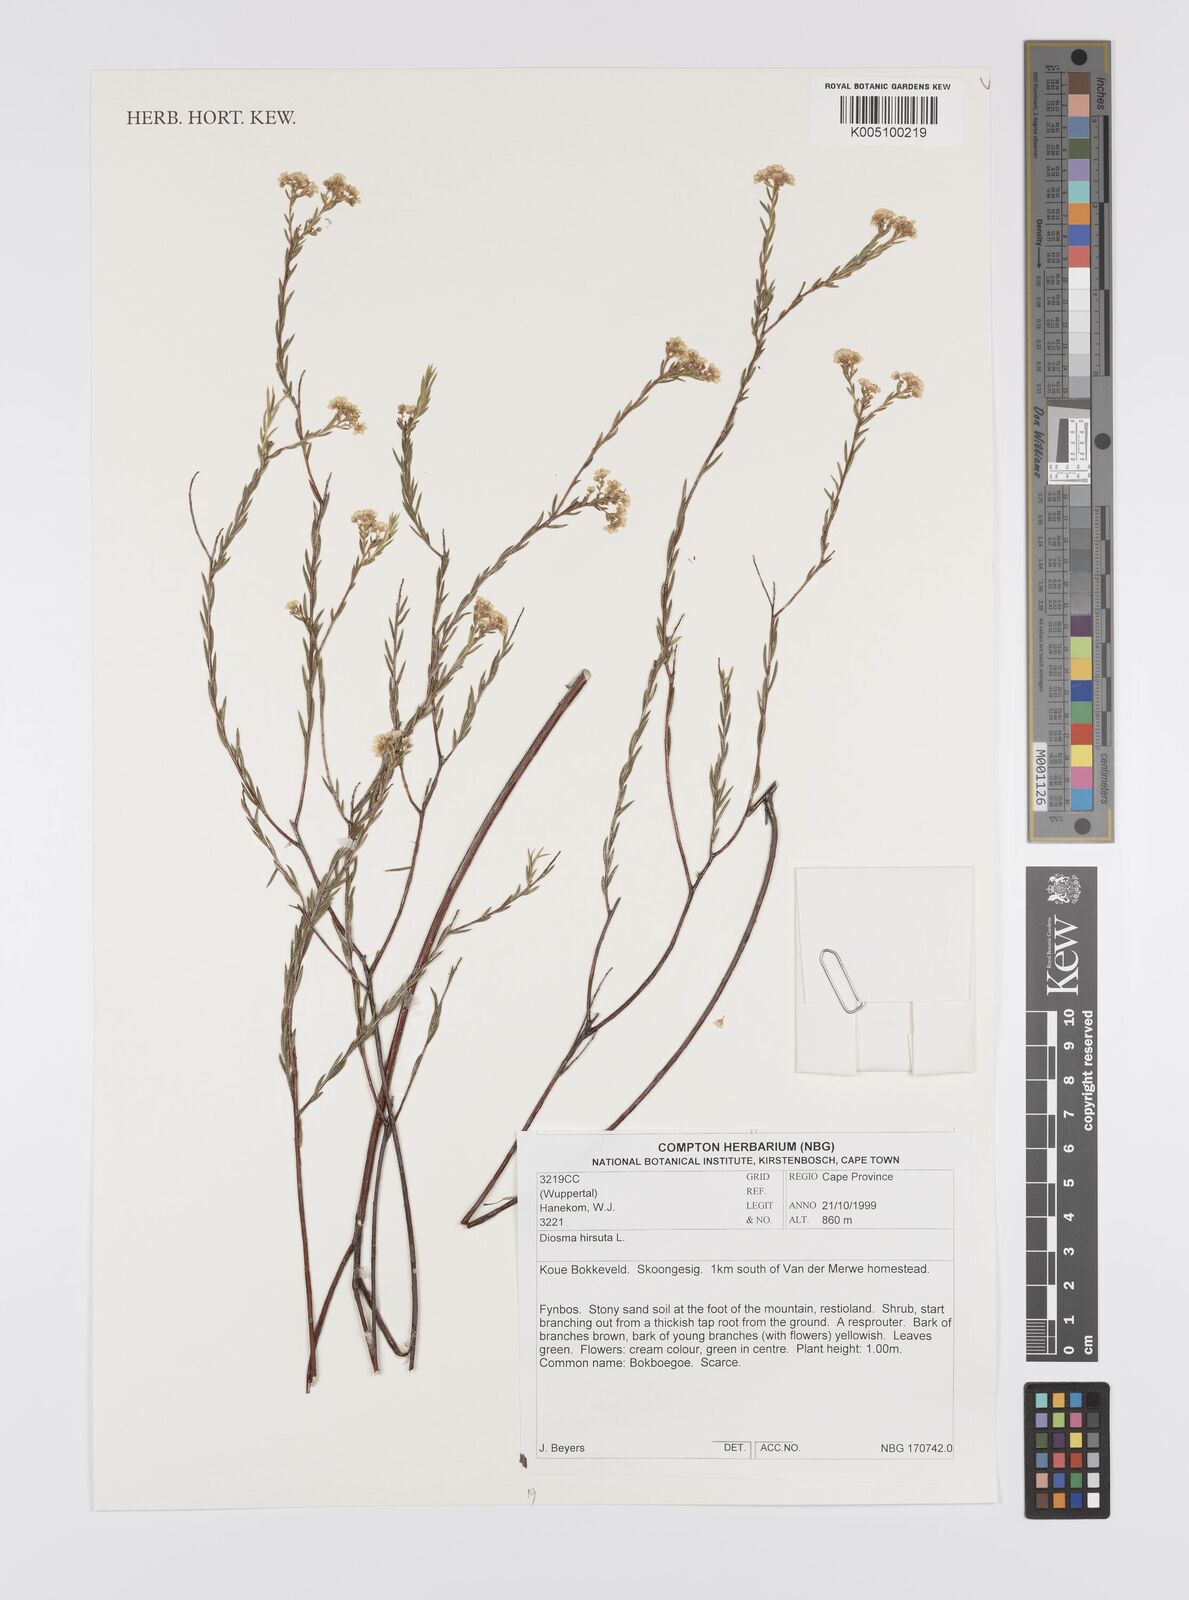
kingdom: Plantae
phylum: Tracheophyta
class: Magnoliopsida
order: Sapindales
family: Rutaceae
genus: Diosma
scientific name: Diosma hirsuta
